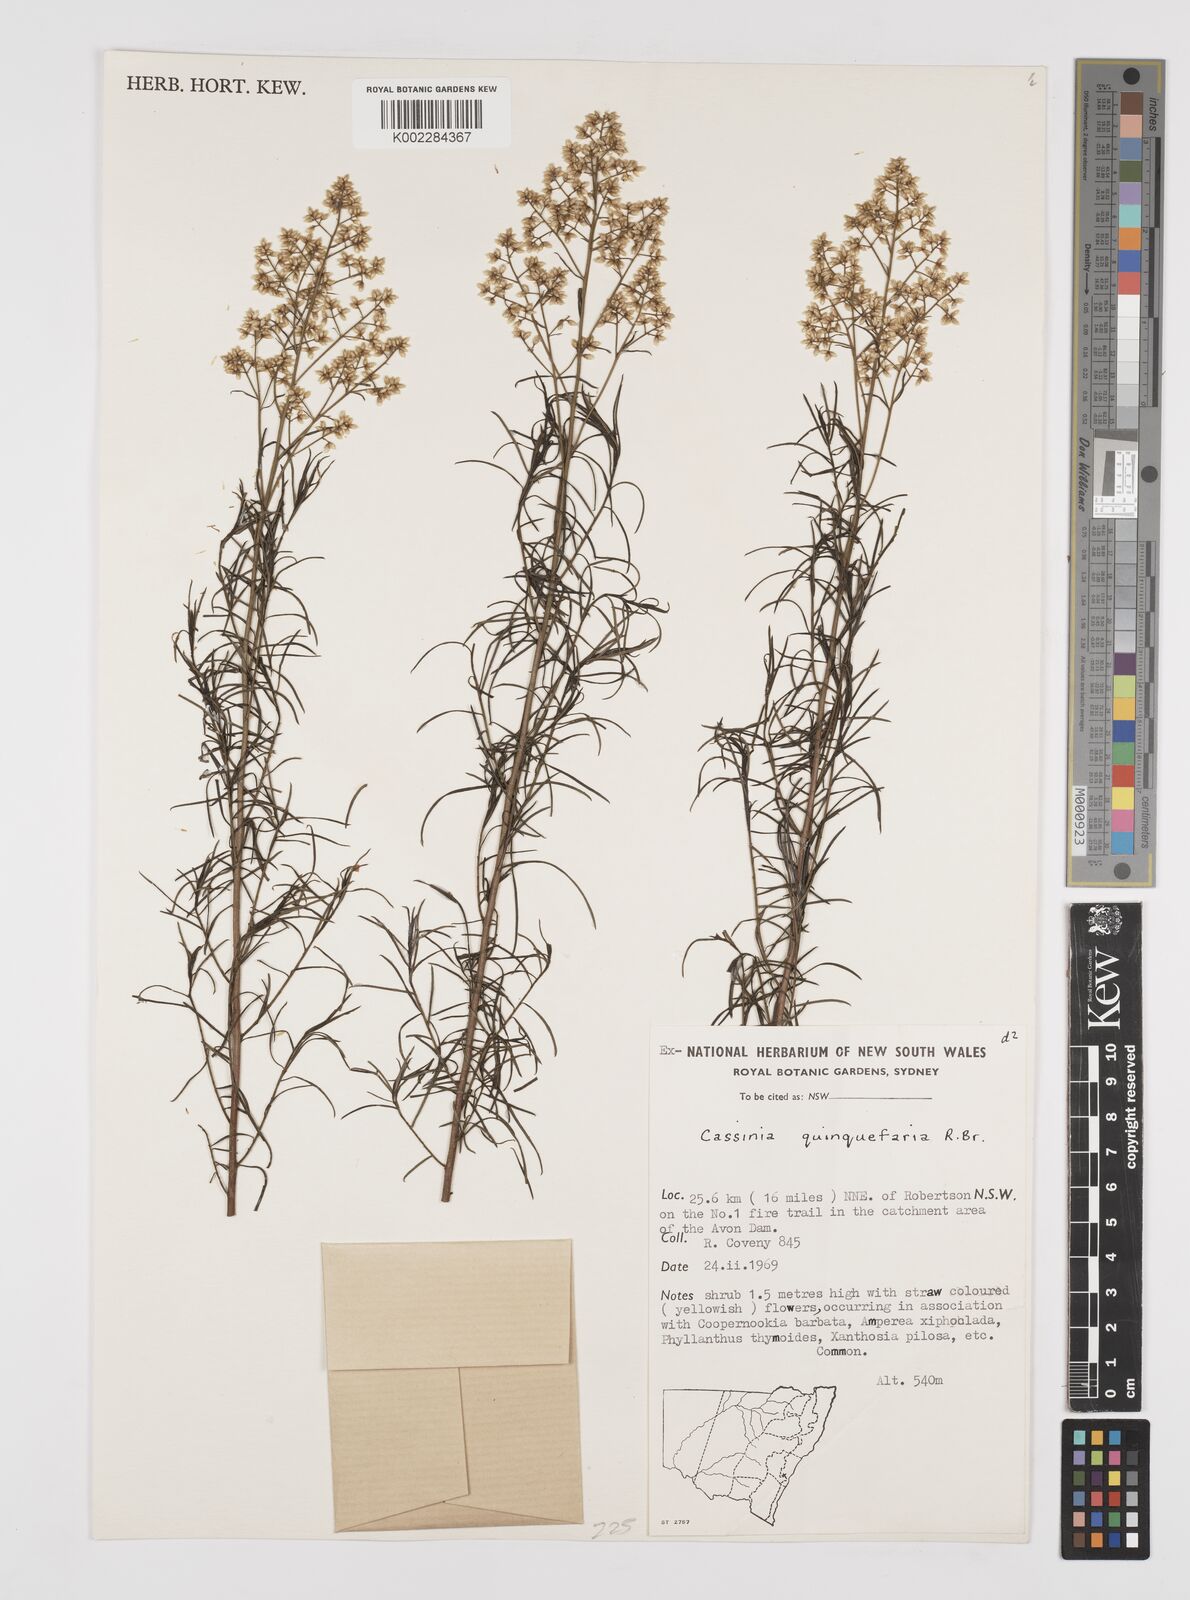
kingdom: Plantae
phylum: Tracheophyta
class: Magnoliopsida
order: Asterales
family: Asteraceae
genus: Cassinia
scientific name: Cassinia quinquefaria
